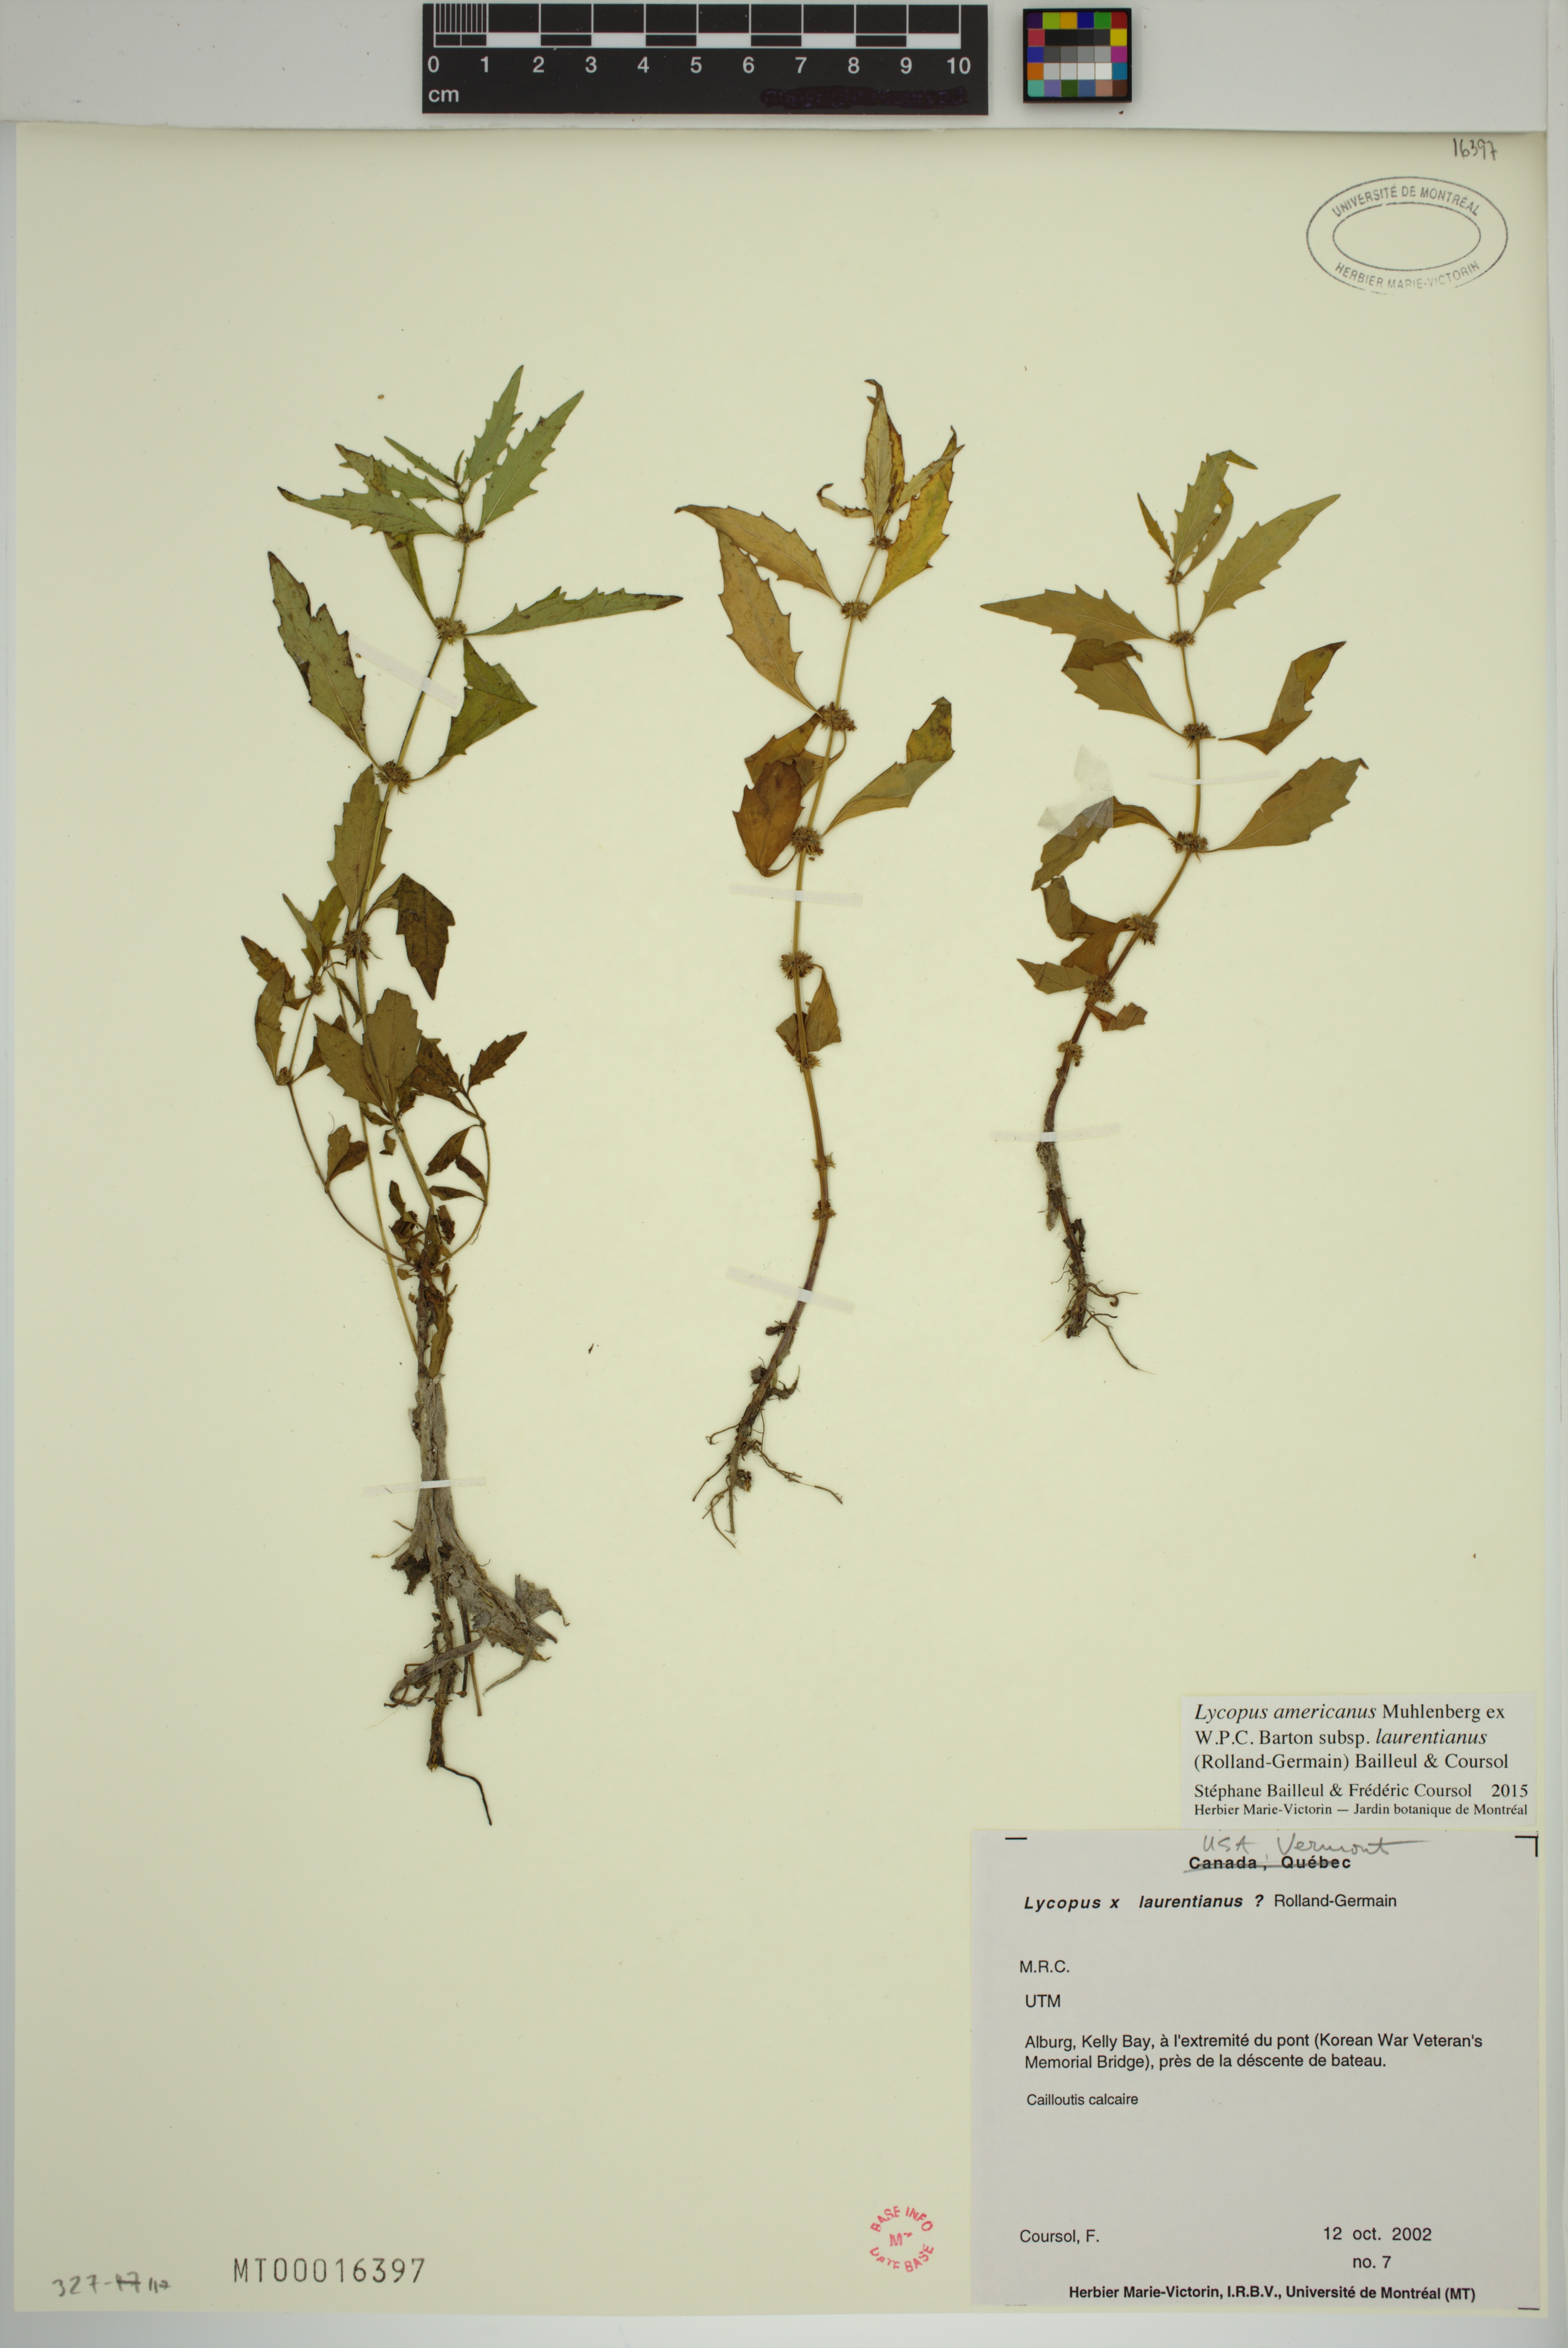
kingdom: Plantae
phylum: Tracheophyta
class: Magnoliopsida
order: Lamiales
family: Lamiaceae
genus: Lycopus
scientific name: Lycopus americanus
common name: American bugleweed
